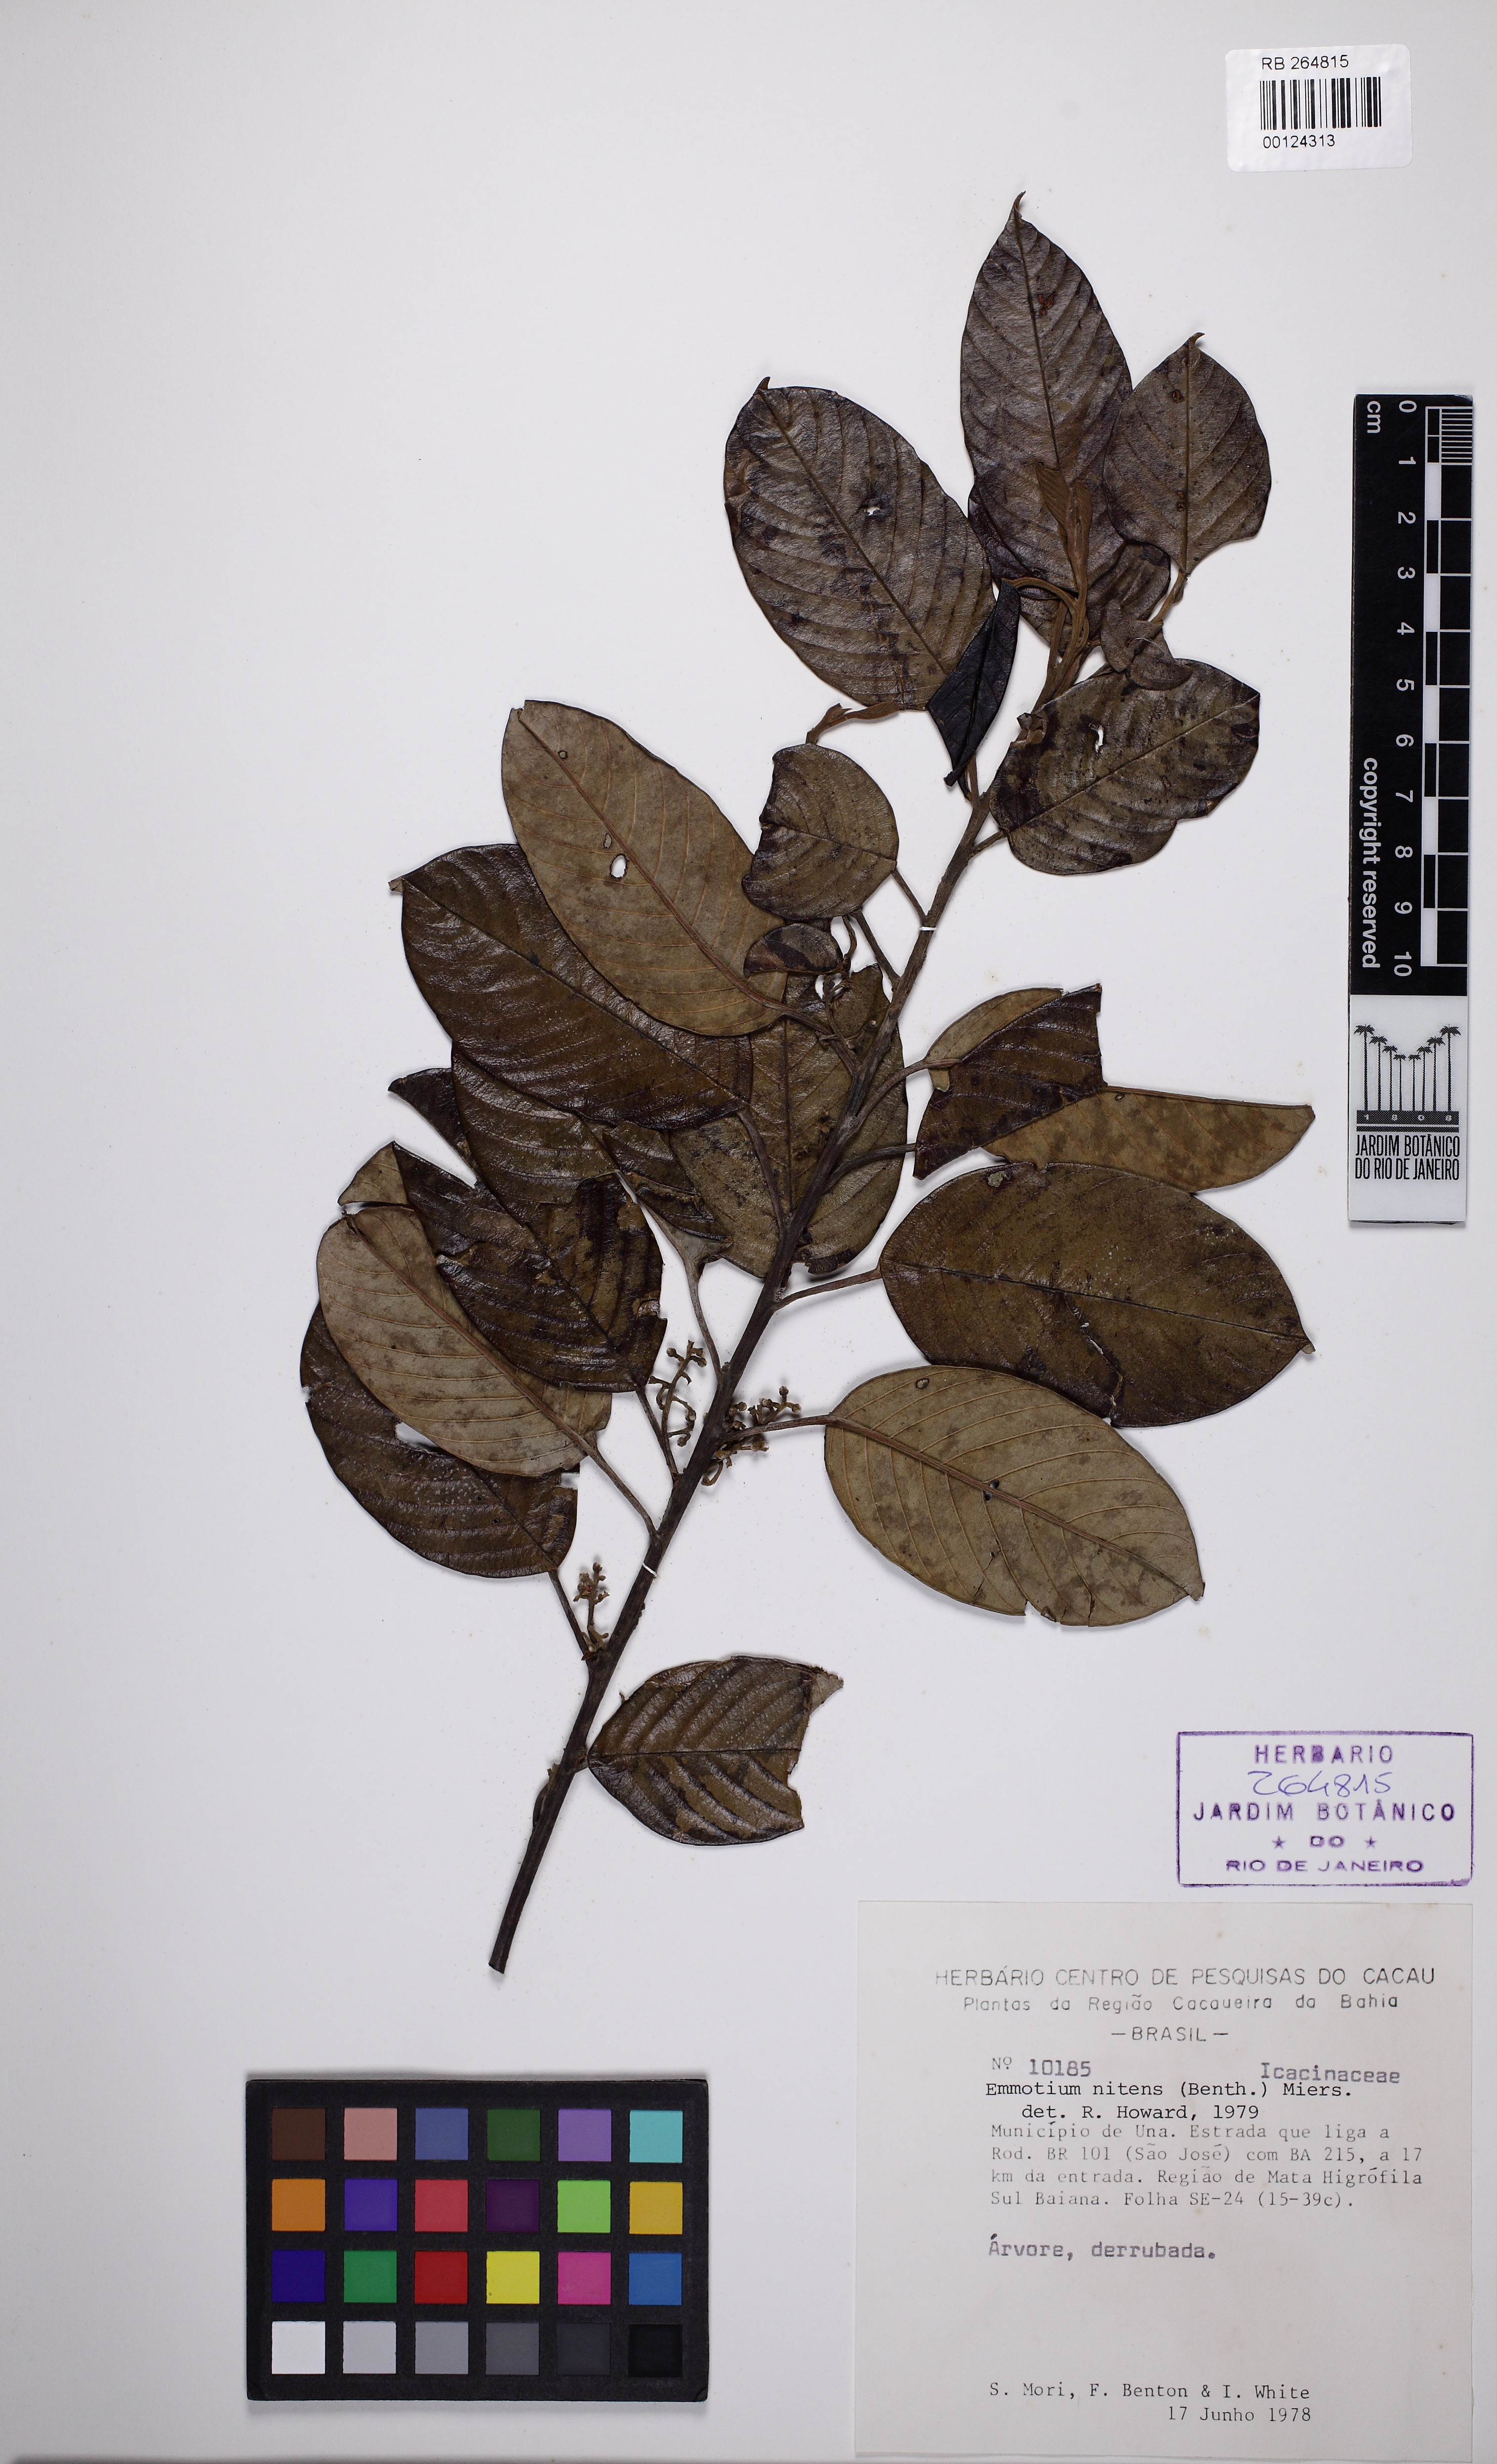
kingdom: Plantae
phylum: Tracheophyta
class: Magnoliopsida
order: Metteniusales
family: Metteniusaceae
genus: Emmotum
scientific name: Emmotum nitens
